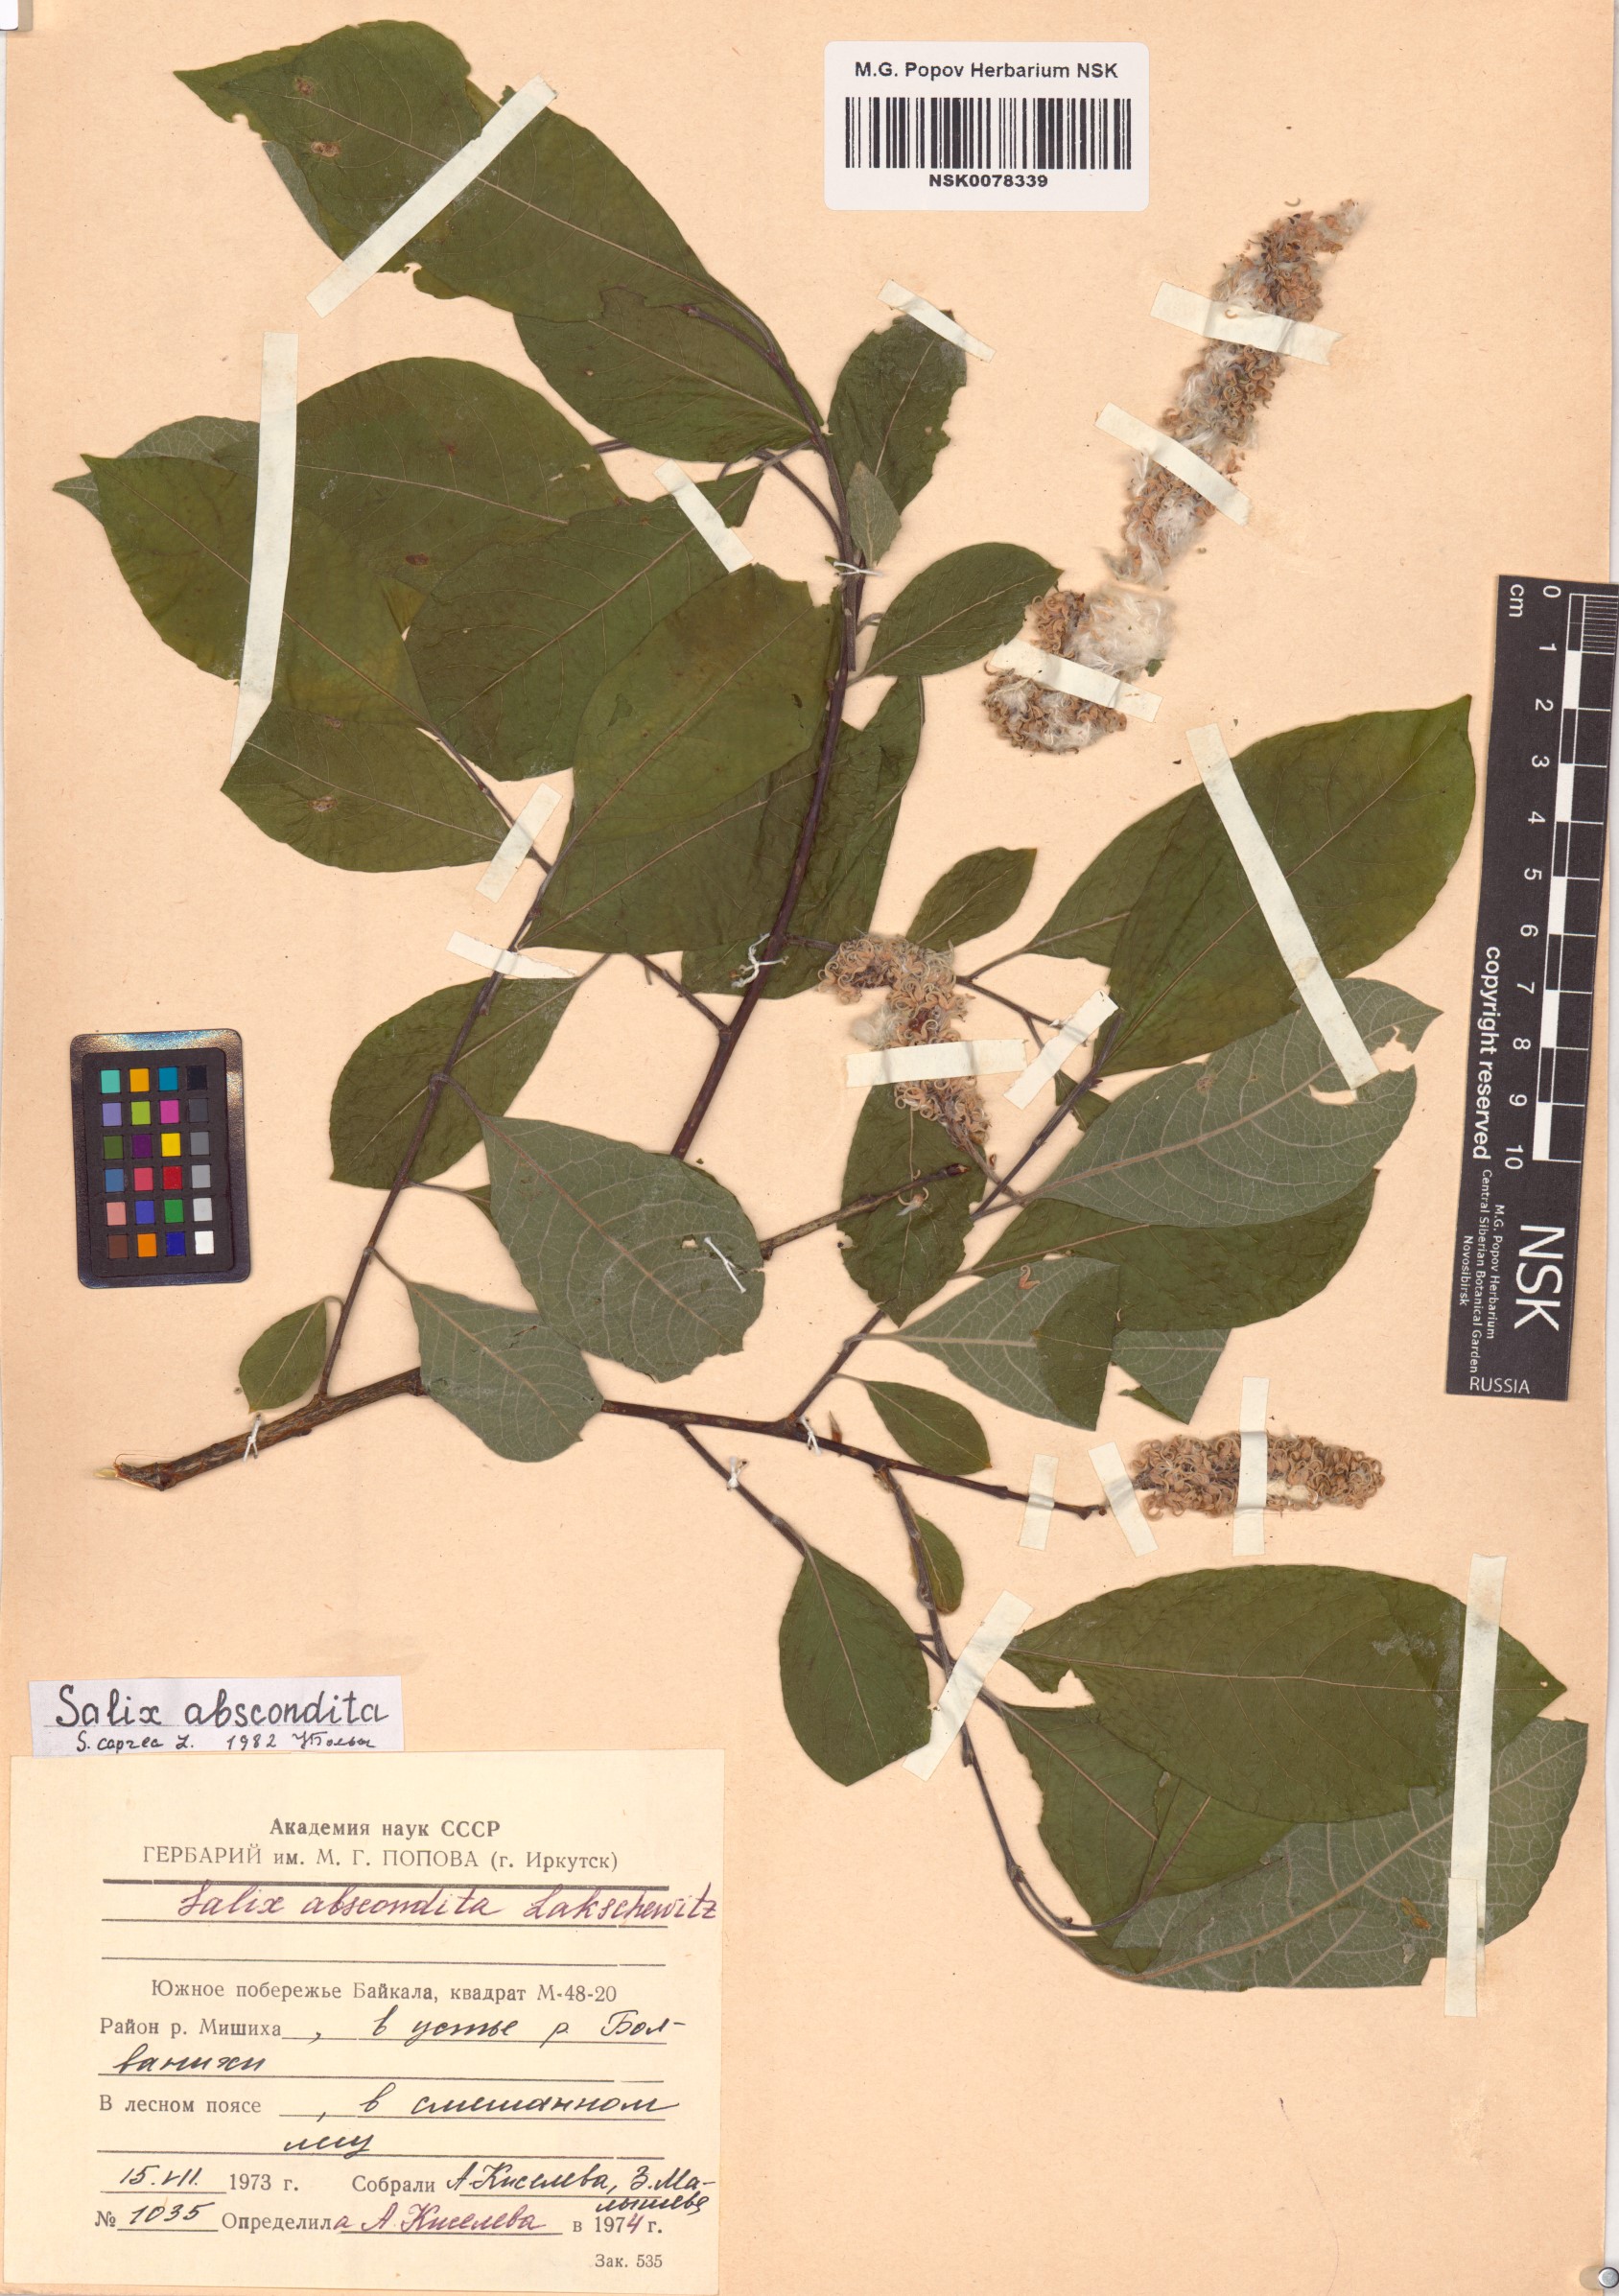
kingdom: Plantae
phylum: Tracheophyta
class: Magnoliopsida
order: Malpighiales
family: Salicaceae
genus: Salix
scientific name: Salix caprea
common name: Goat willow
